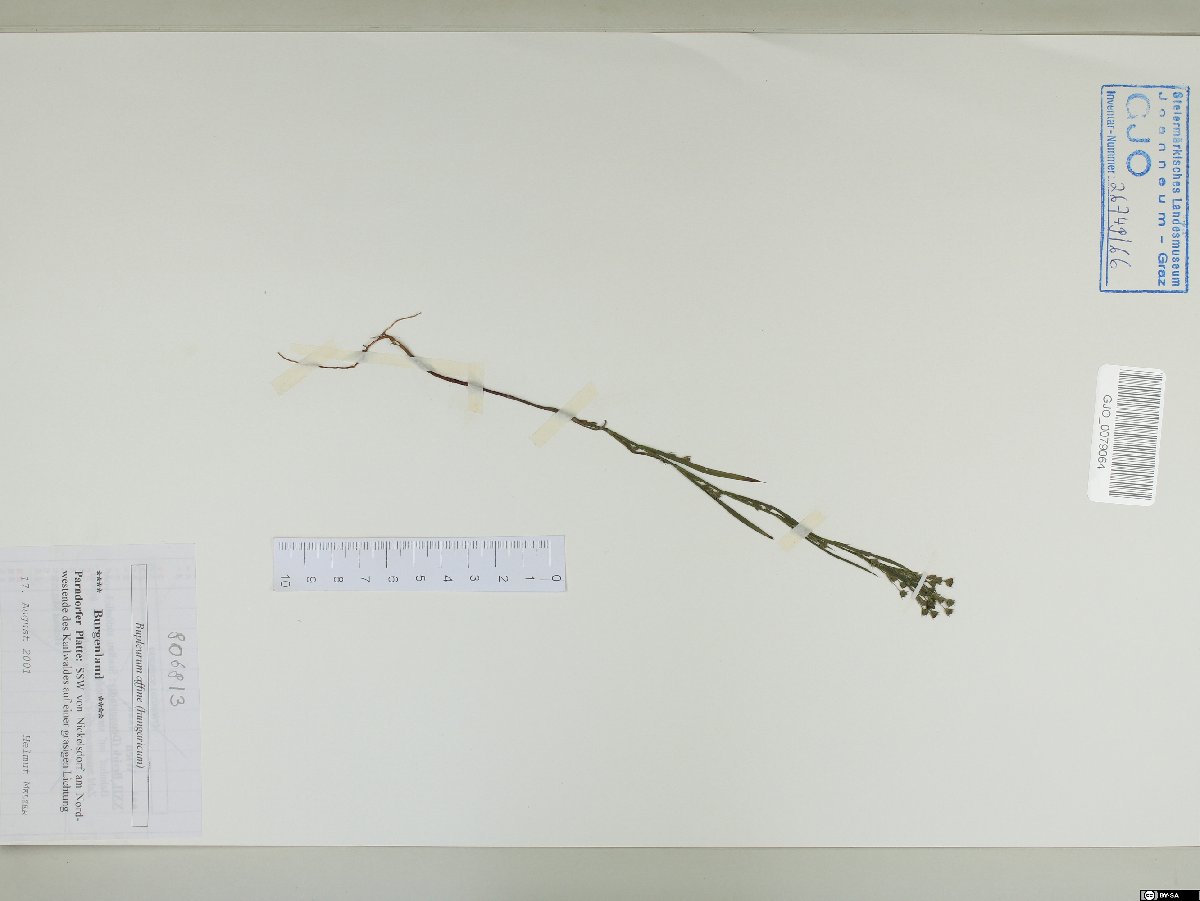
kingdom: Plantae
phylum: Tracheophyta
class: Magnoliopsida
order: Apiales
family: Apiaceae
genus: Bupleurum
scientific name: Bupleurum affine
